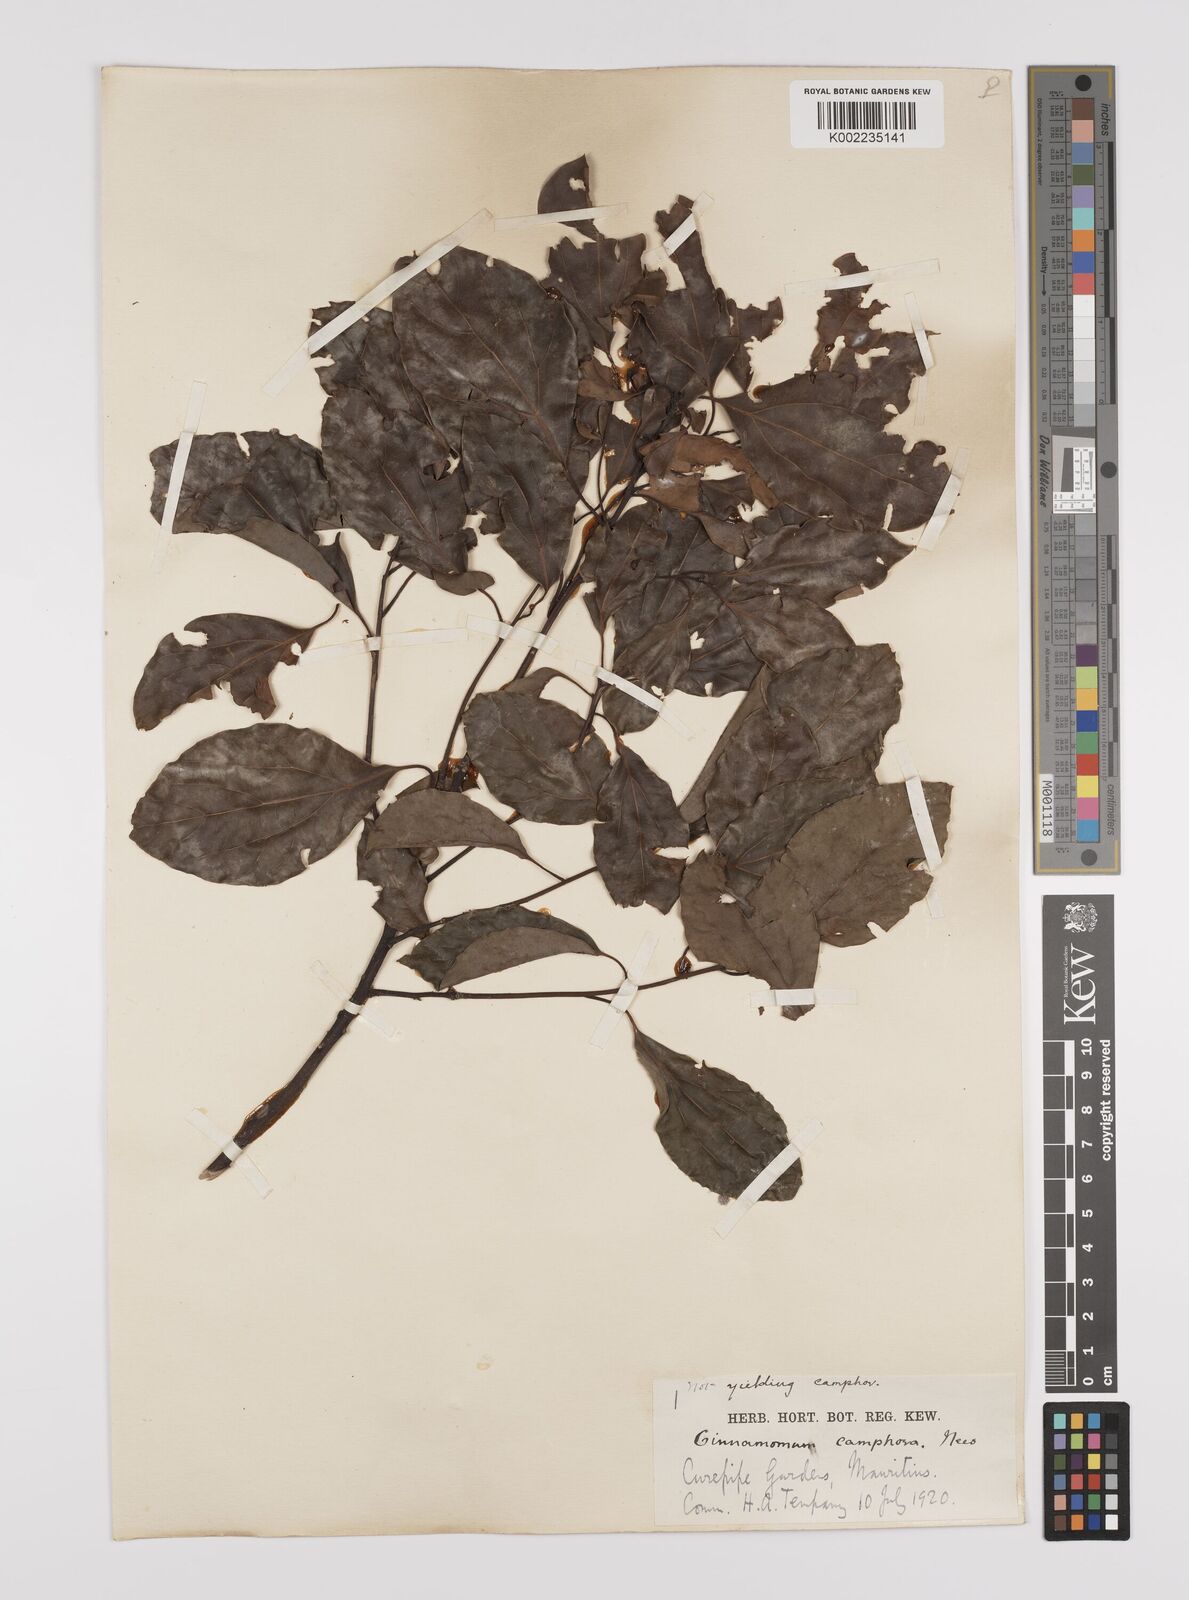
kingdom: Plantae
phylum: Tracheophyta
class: Magnoliopsida
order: Laurales
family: Lauraceae
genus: Cinnamomum
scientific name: Cinnamomum camphora
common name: Camphortree
